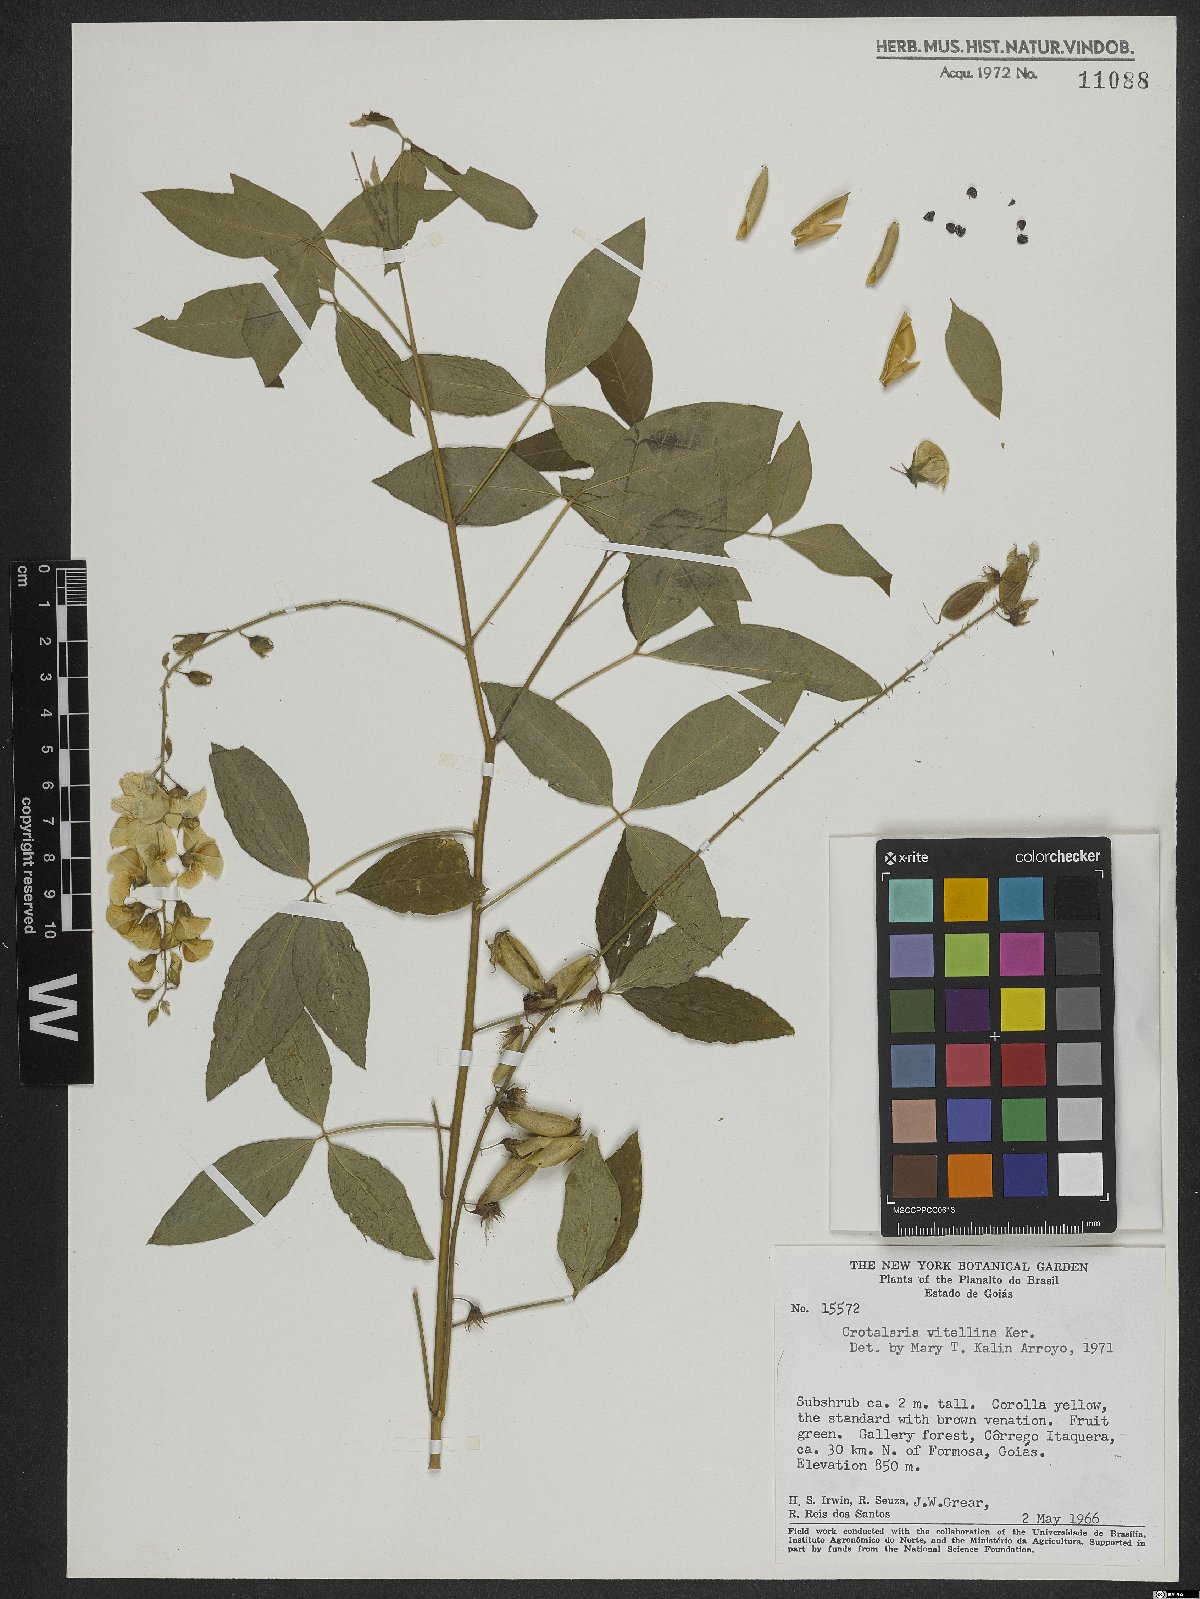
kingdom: Plantae
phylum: Tracheophyta
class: Magnoliopsida
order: Fabales
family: Fabaceae
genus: Crotalaria
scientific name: Crotalaria vitellina
